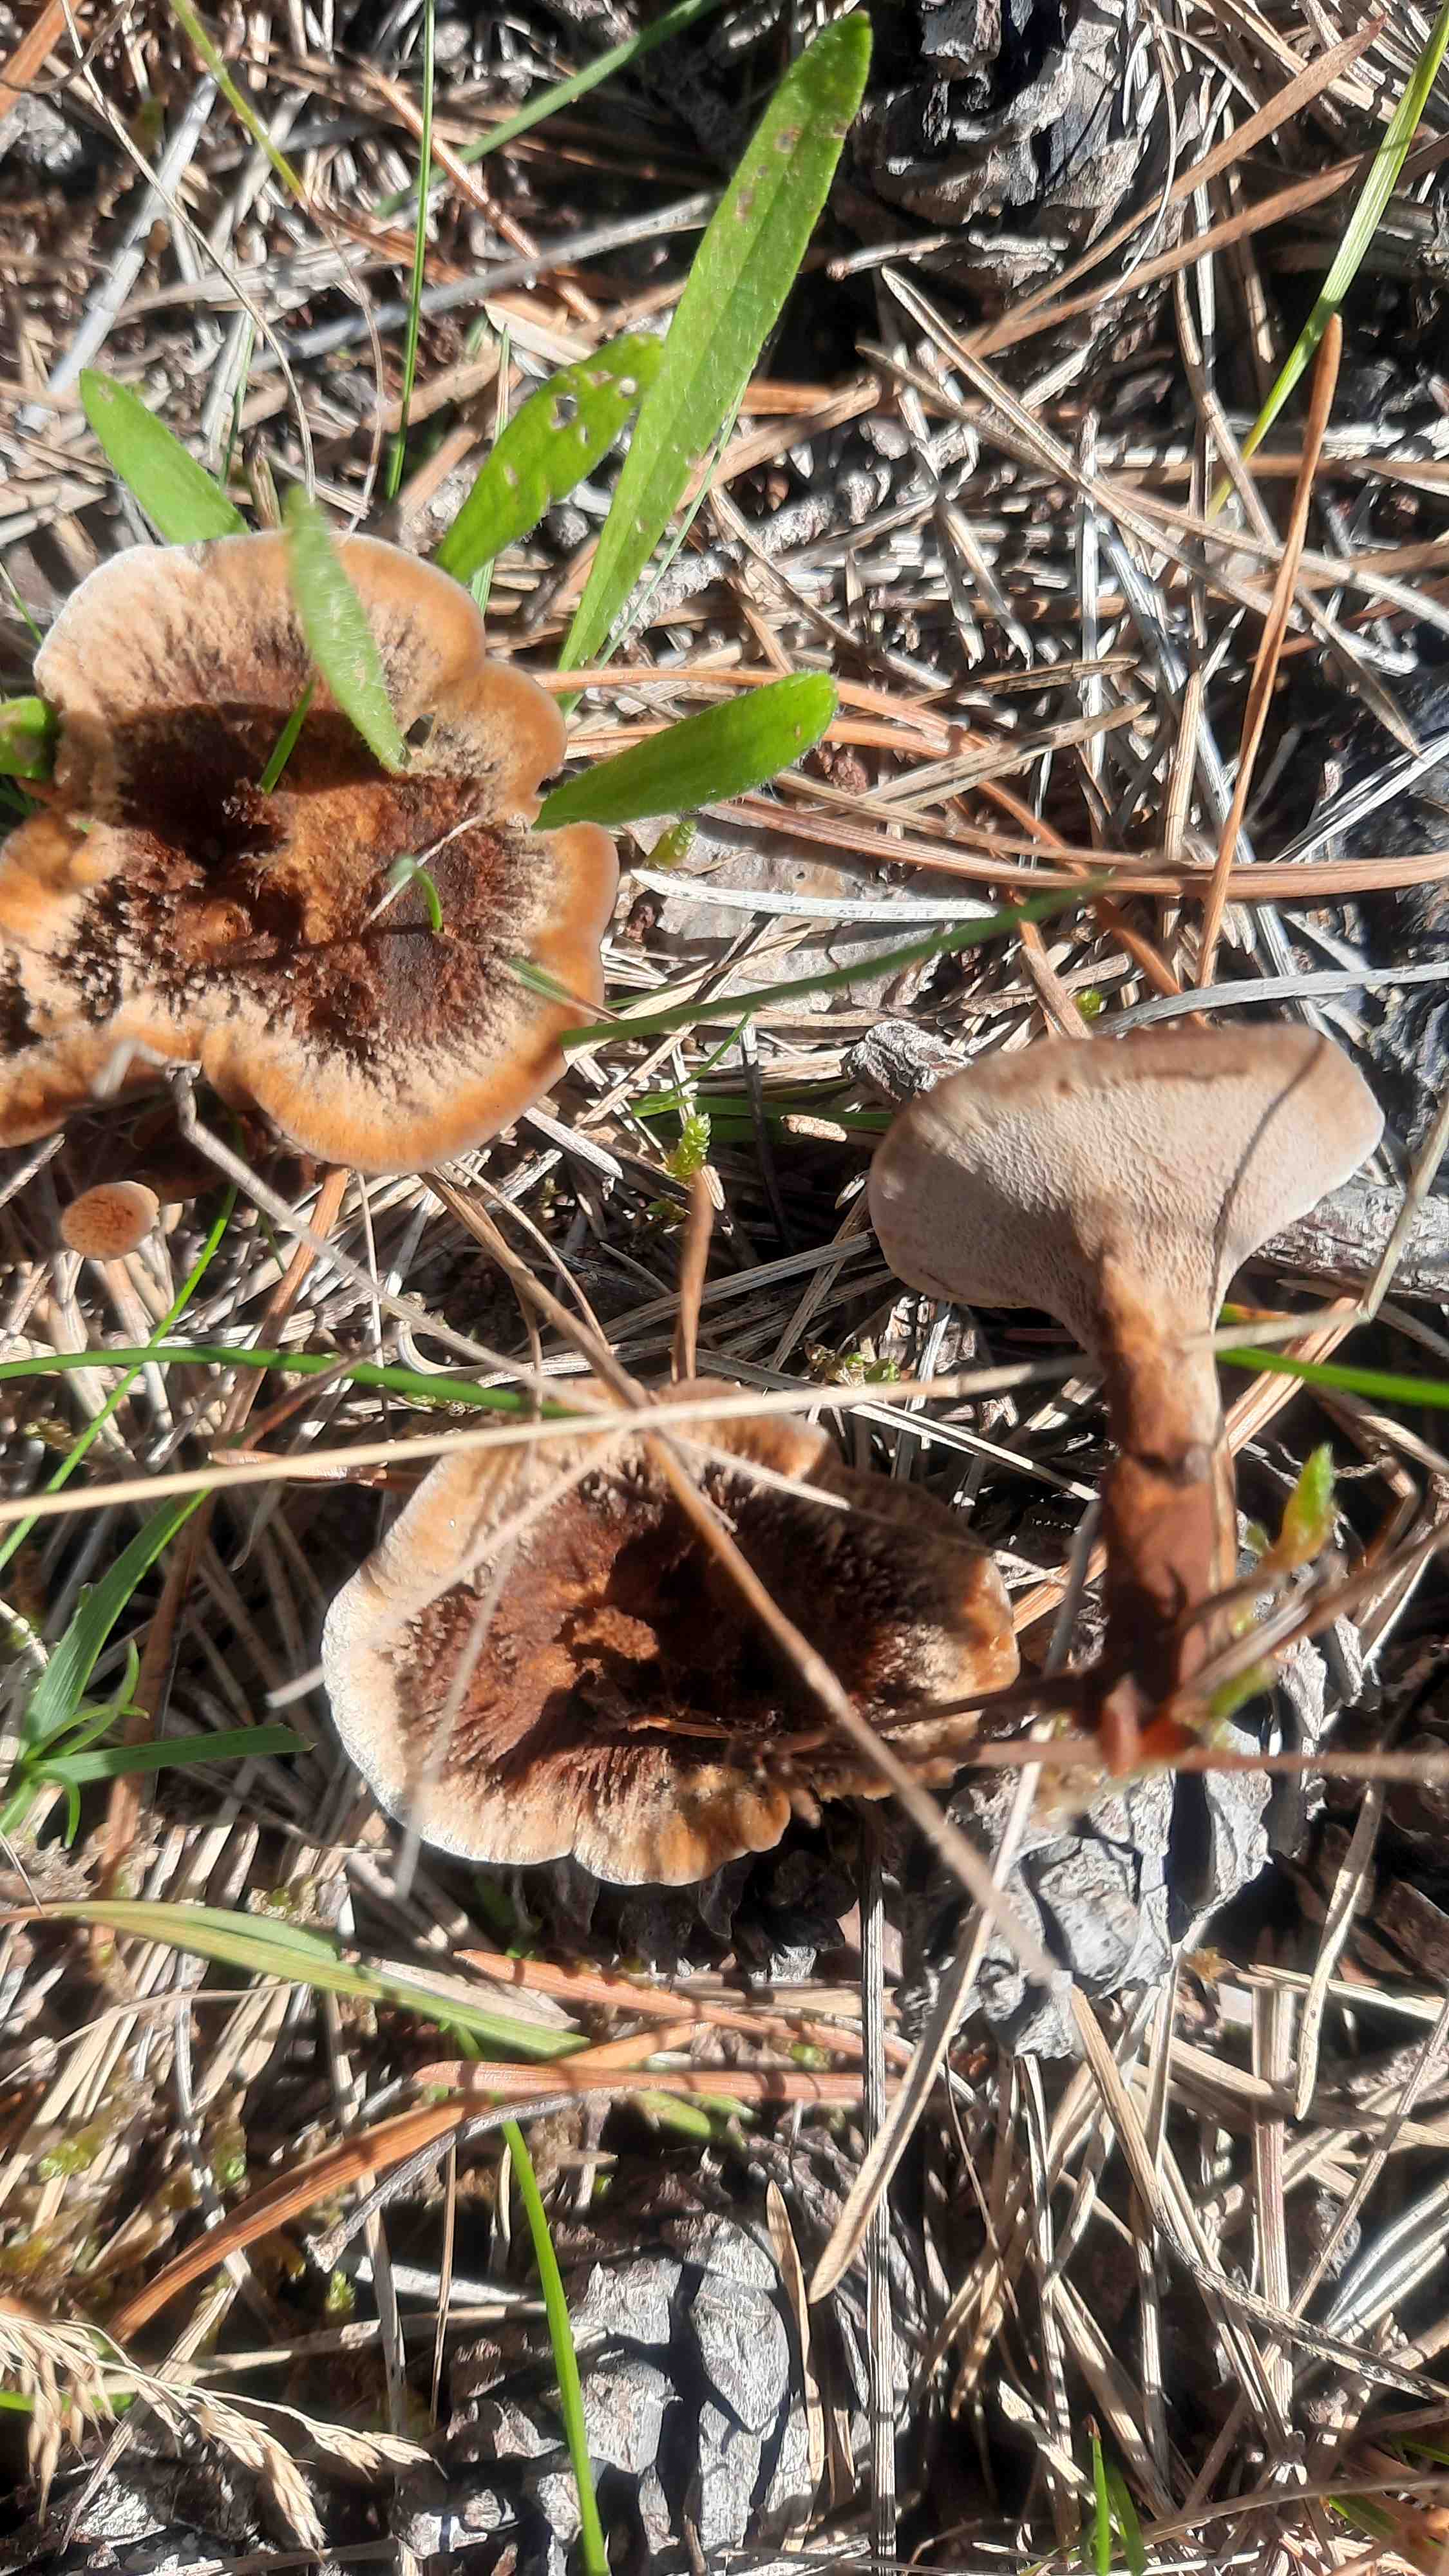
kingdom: Fungi
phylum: Basidiomycota
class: Agaricomycetes
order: Hymenochaetales
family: Hymenochaetaceae
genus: Coltricia
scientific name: Coltricia perennis
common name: almindelig sandporesvamp
